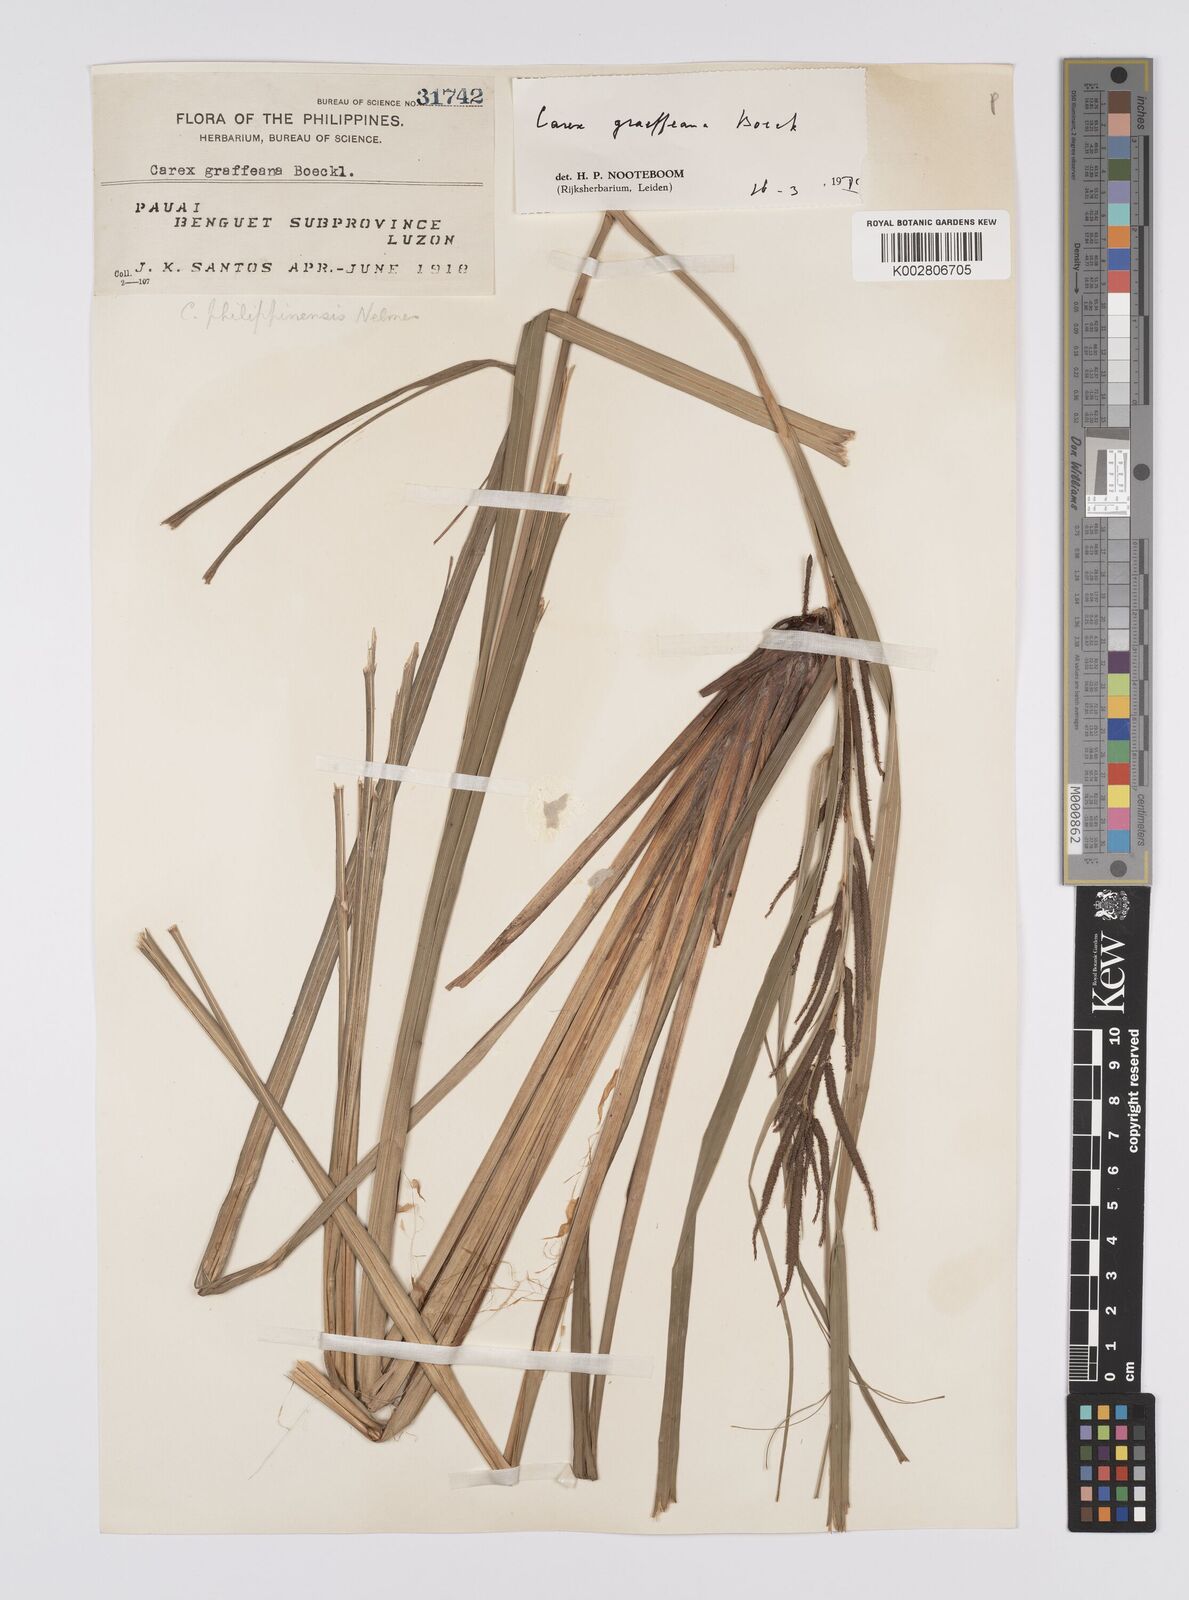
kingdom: Plantae
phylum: Tracheophyta
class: Liliopsida
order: Poales
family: Cyperaceae
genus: Carex
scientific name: Carex graeffeana
